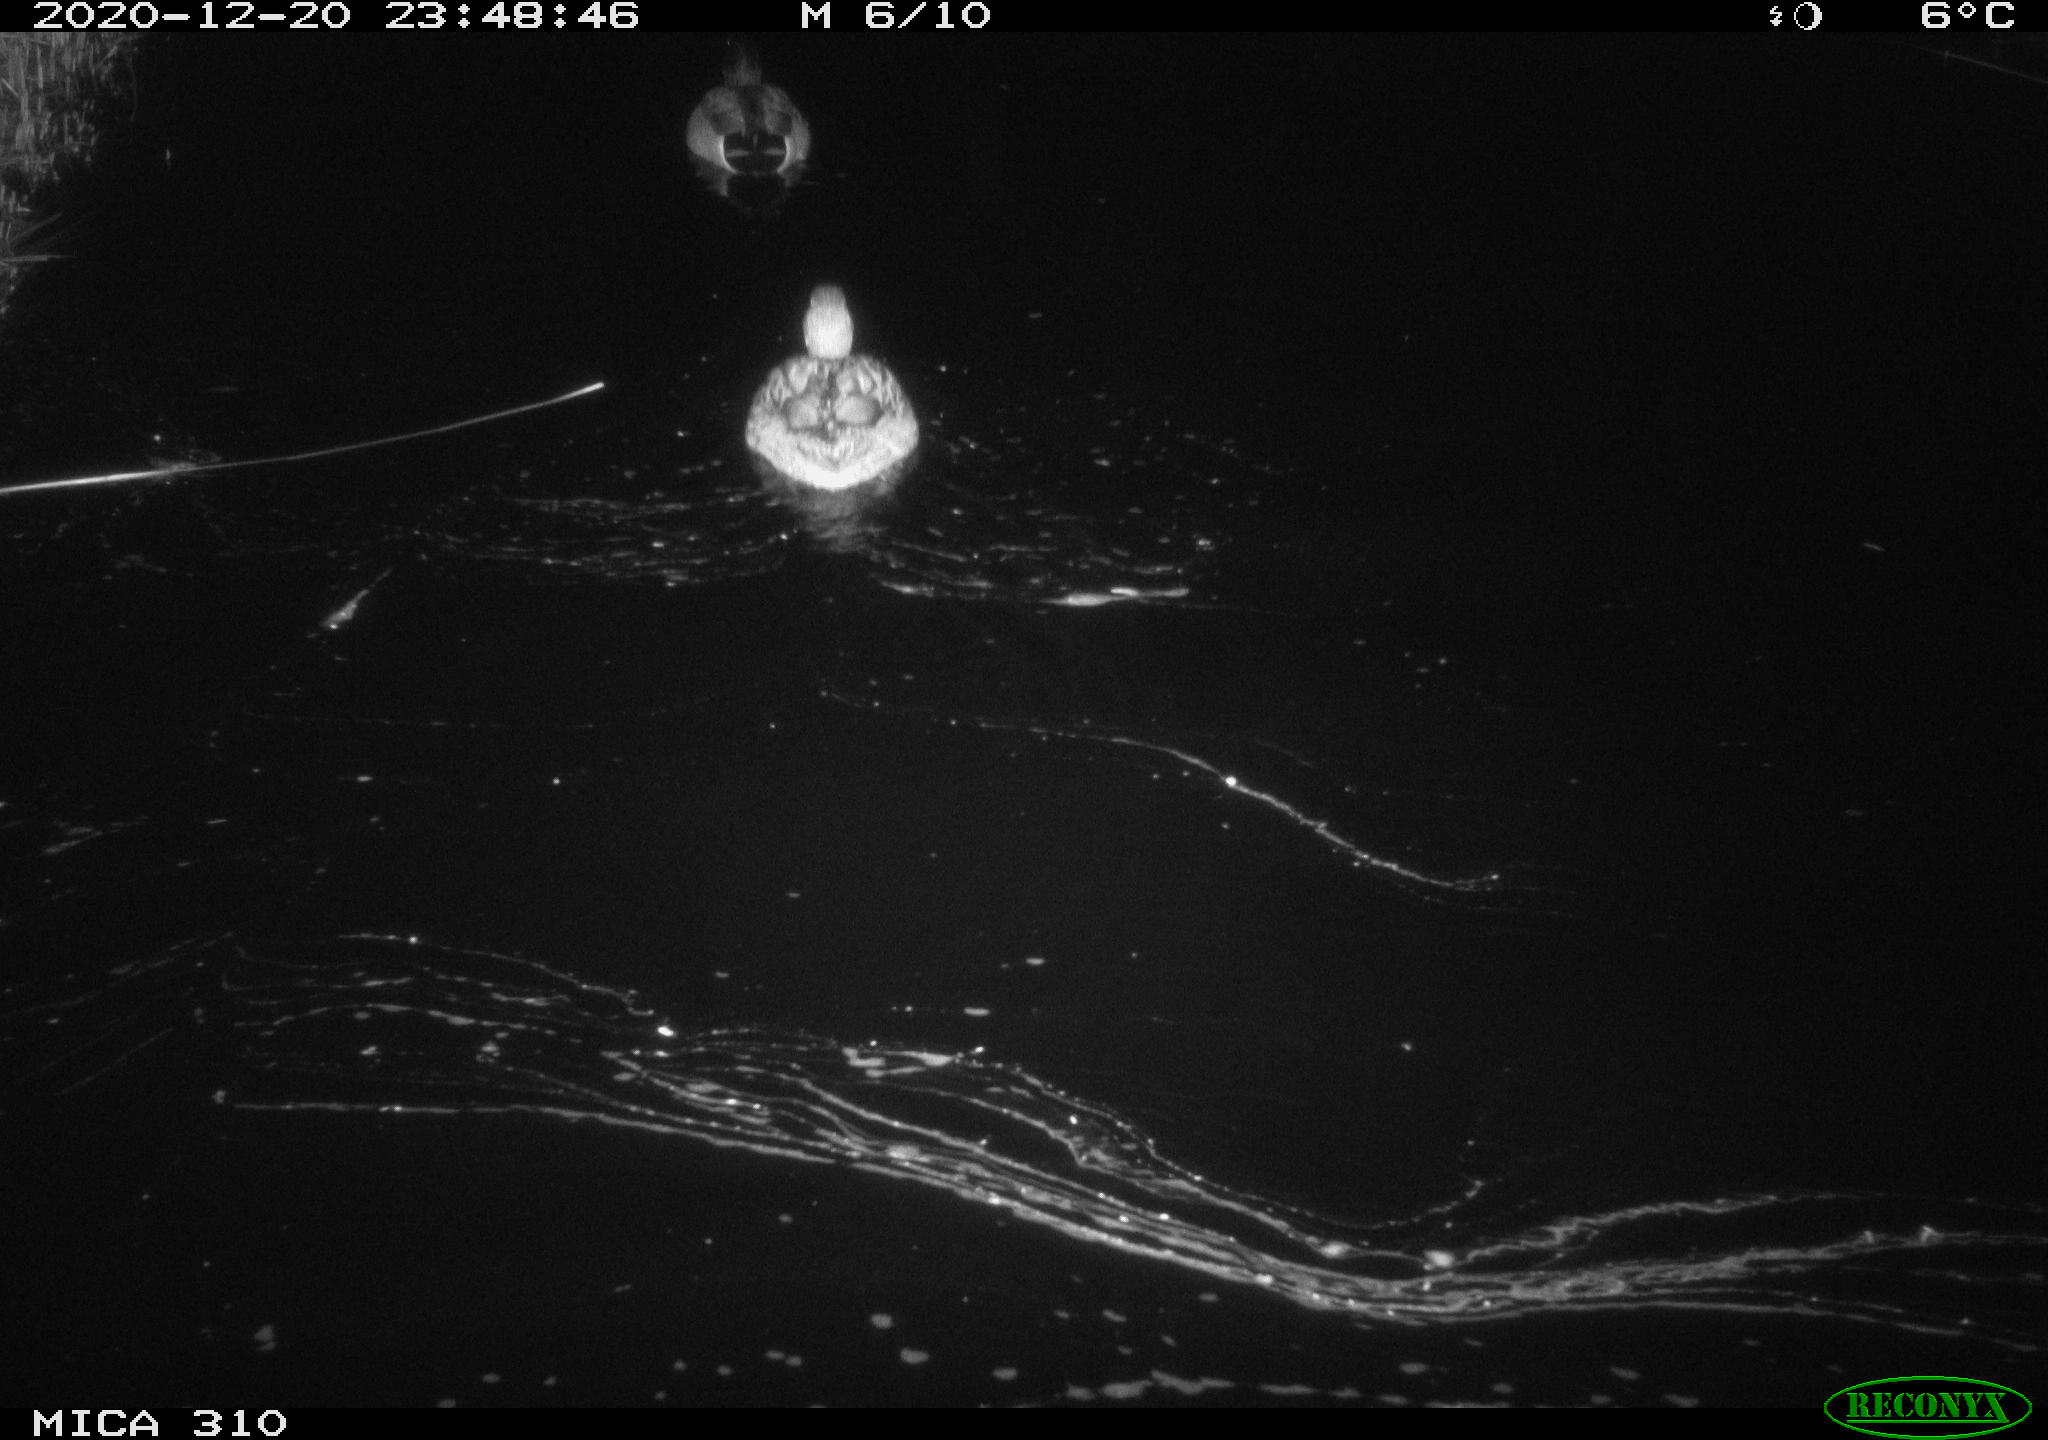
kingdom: Animalia
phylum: Chordata
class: Aves
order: Anseriformes
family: Anatidae
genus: Anas
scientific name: Anas platyrhynchos
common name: Mallard
